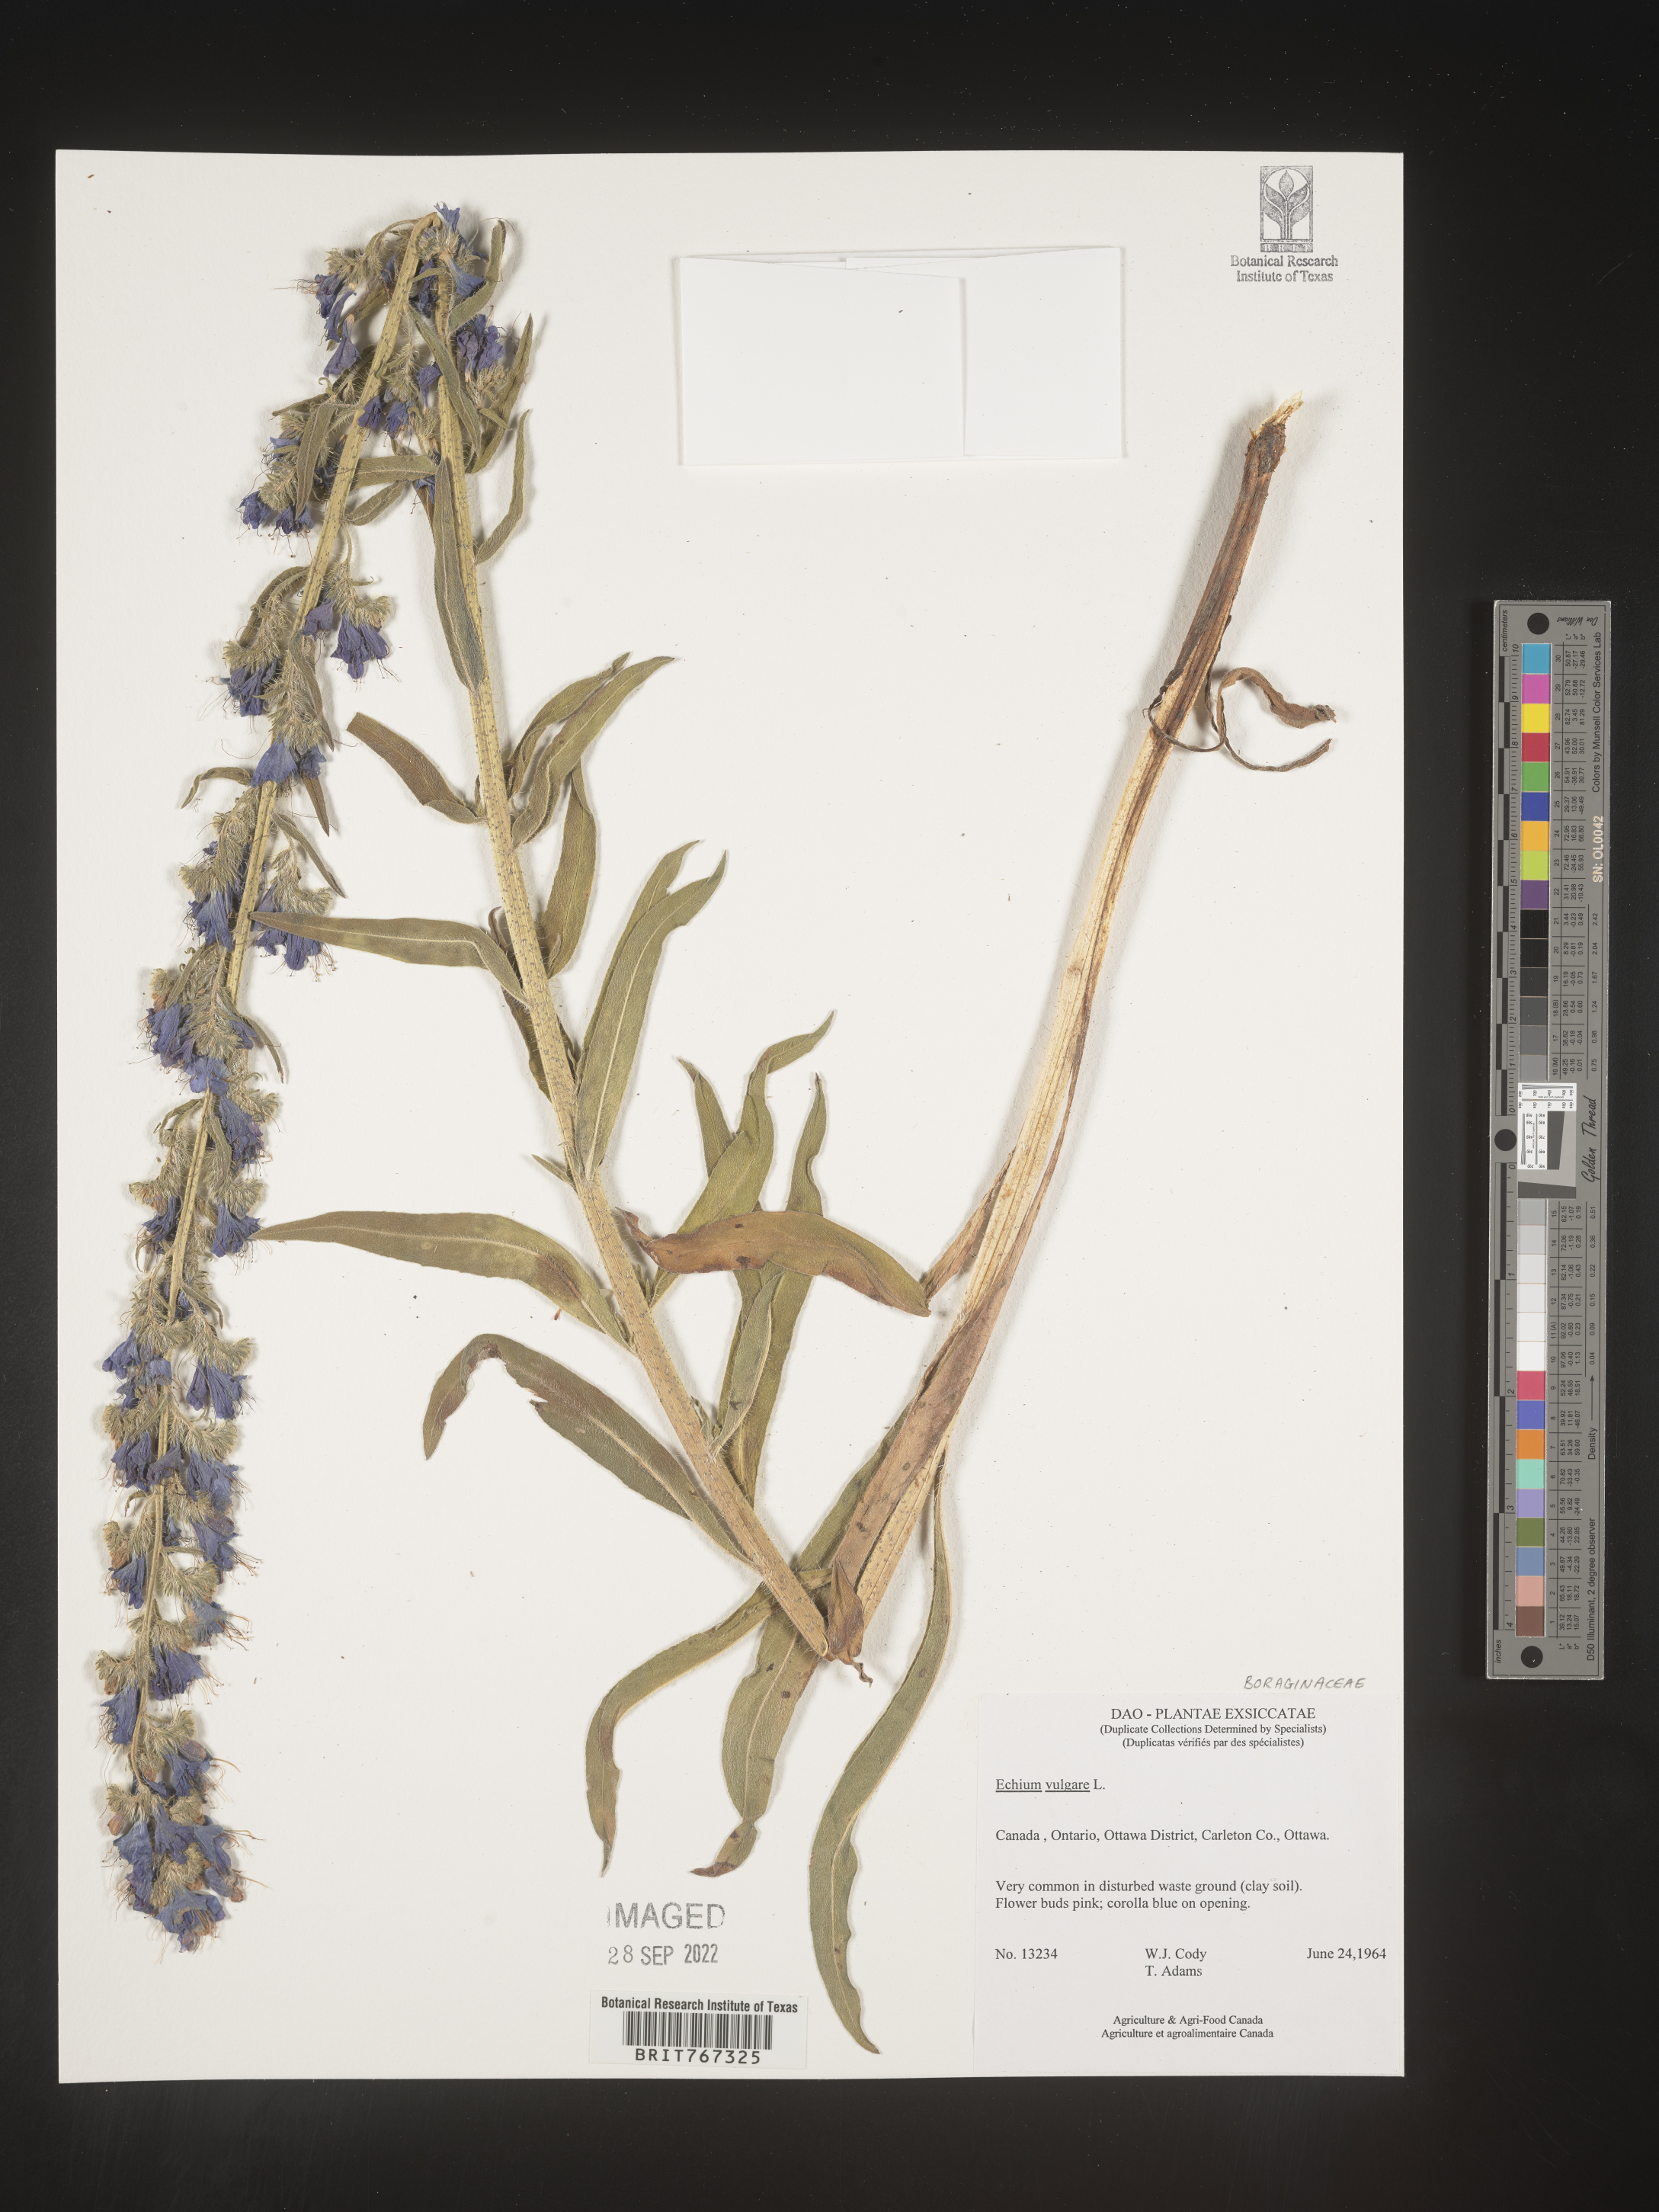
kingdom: Plantae
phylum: Tracheophyta
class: Magnoliopsida
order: Boraginales
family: Boraginaceae
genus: Echium
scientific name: Echium
